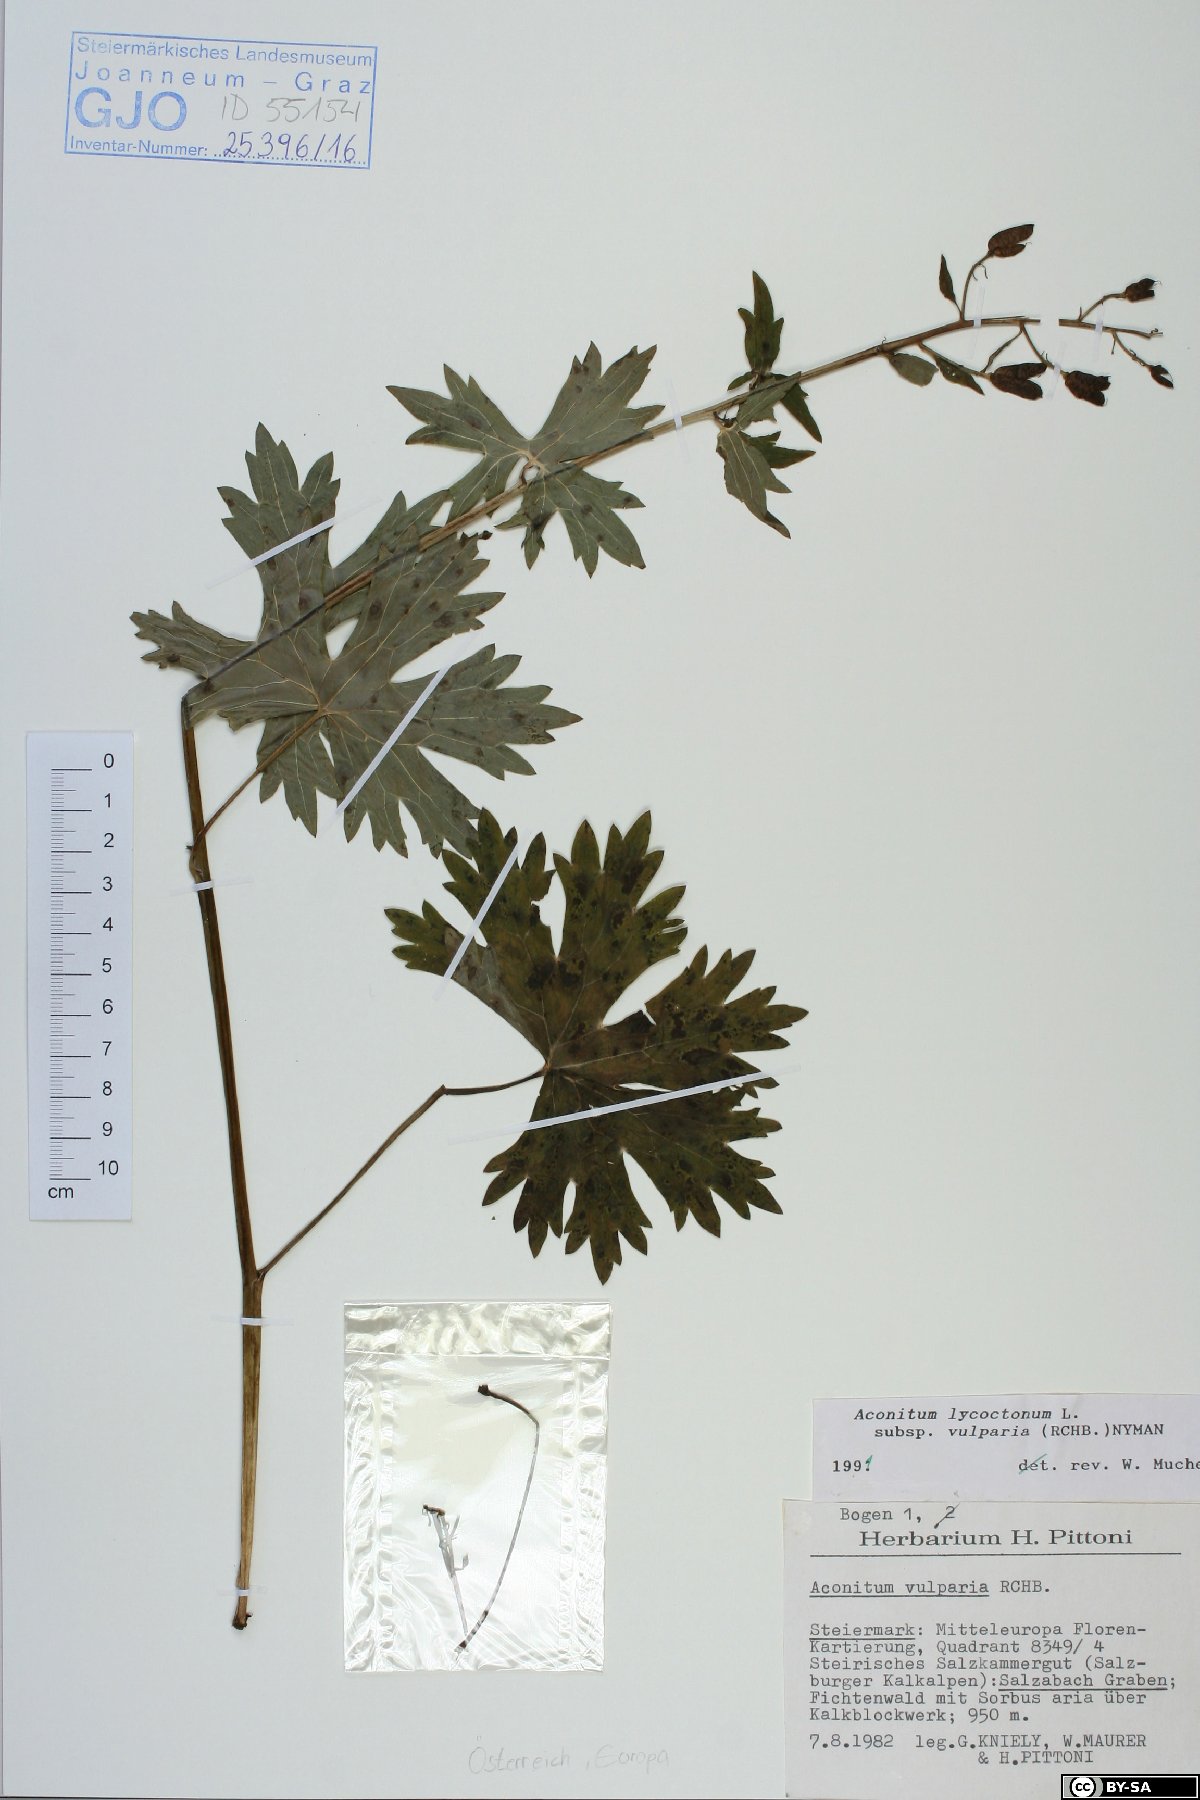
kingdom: Plantae
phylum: Tracheophyta
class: Magnoliopsida
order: Ranunculales
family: Ranunculaceae
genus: Aconitum
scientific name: Aconitum lycoctonum
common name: Wolf's-bane
